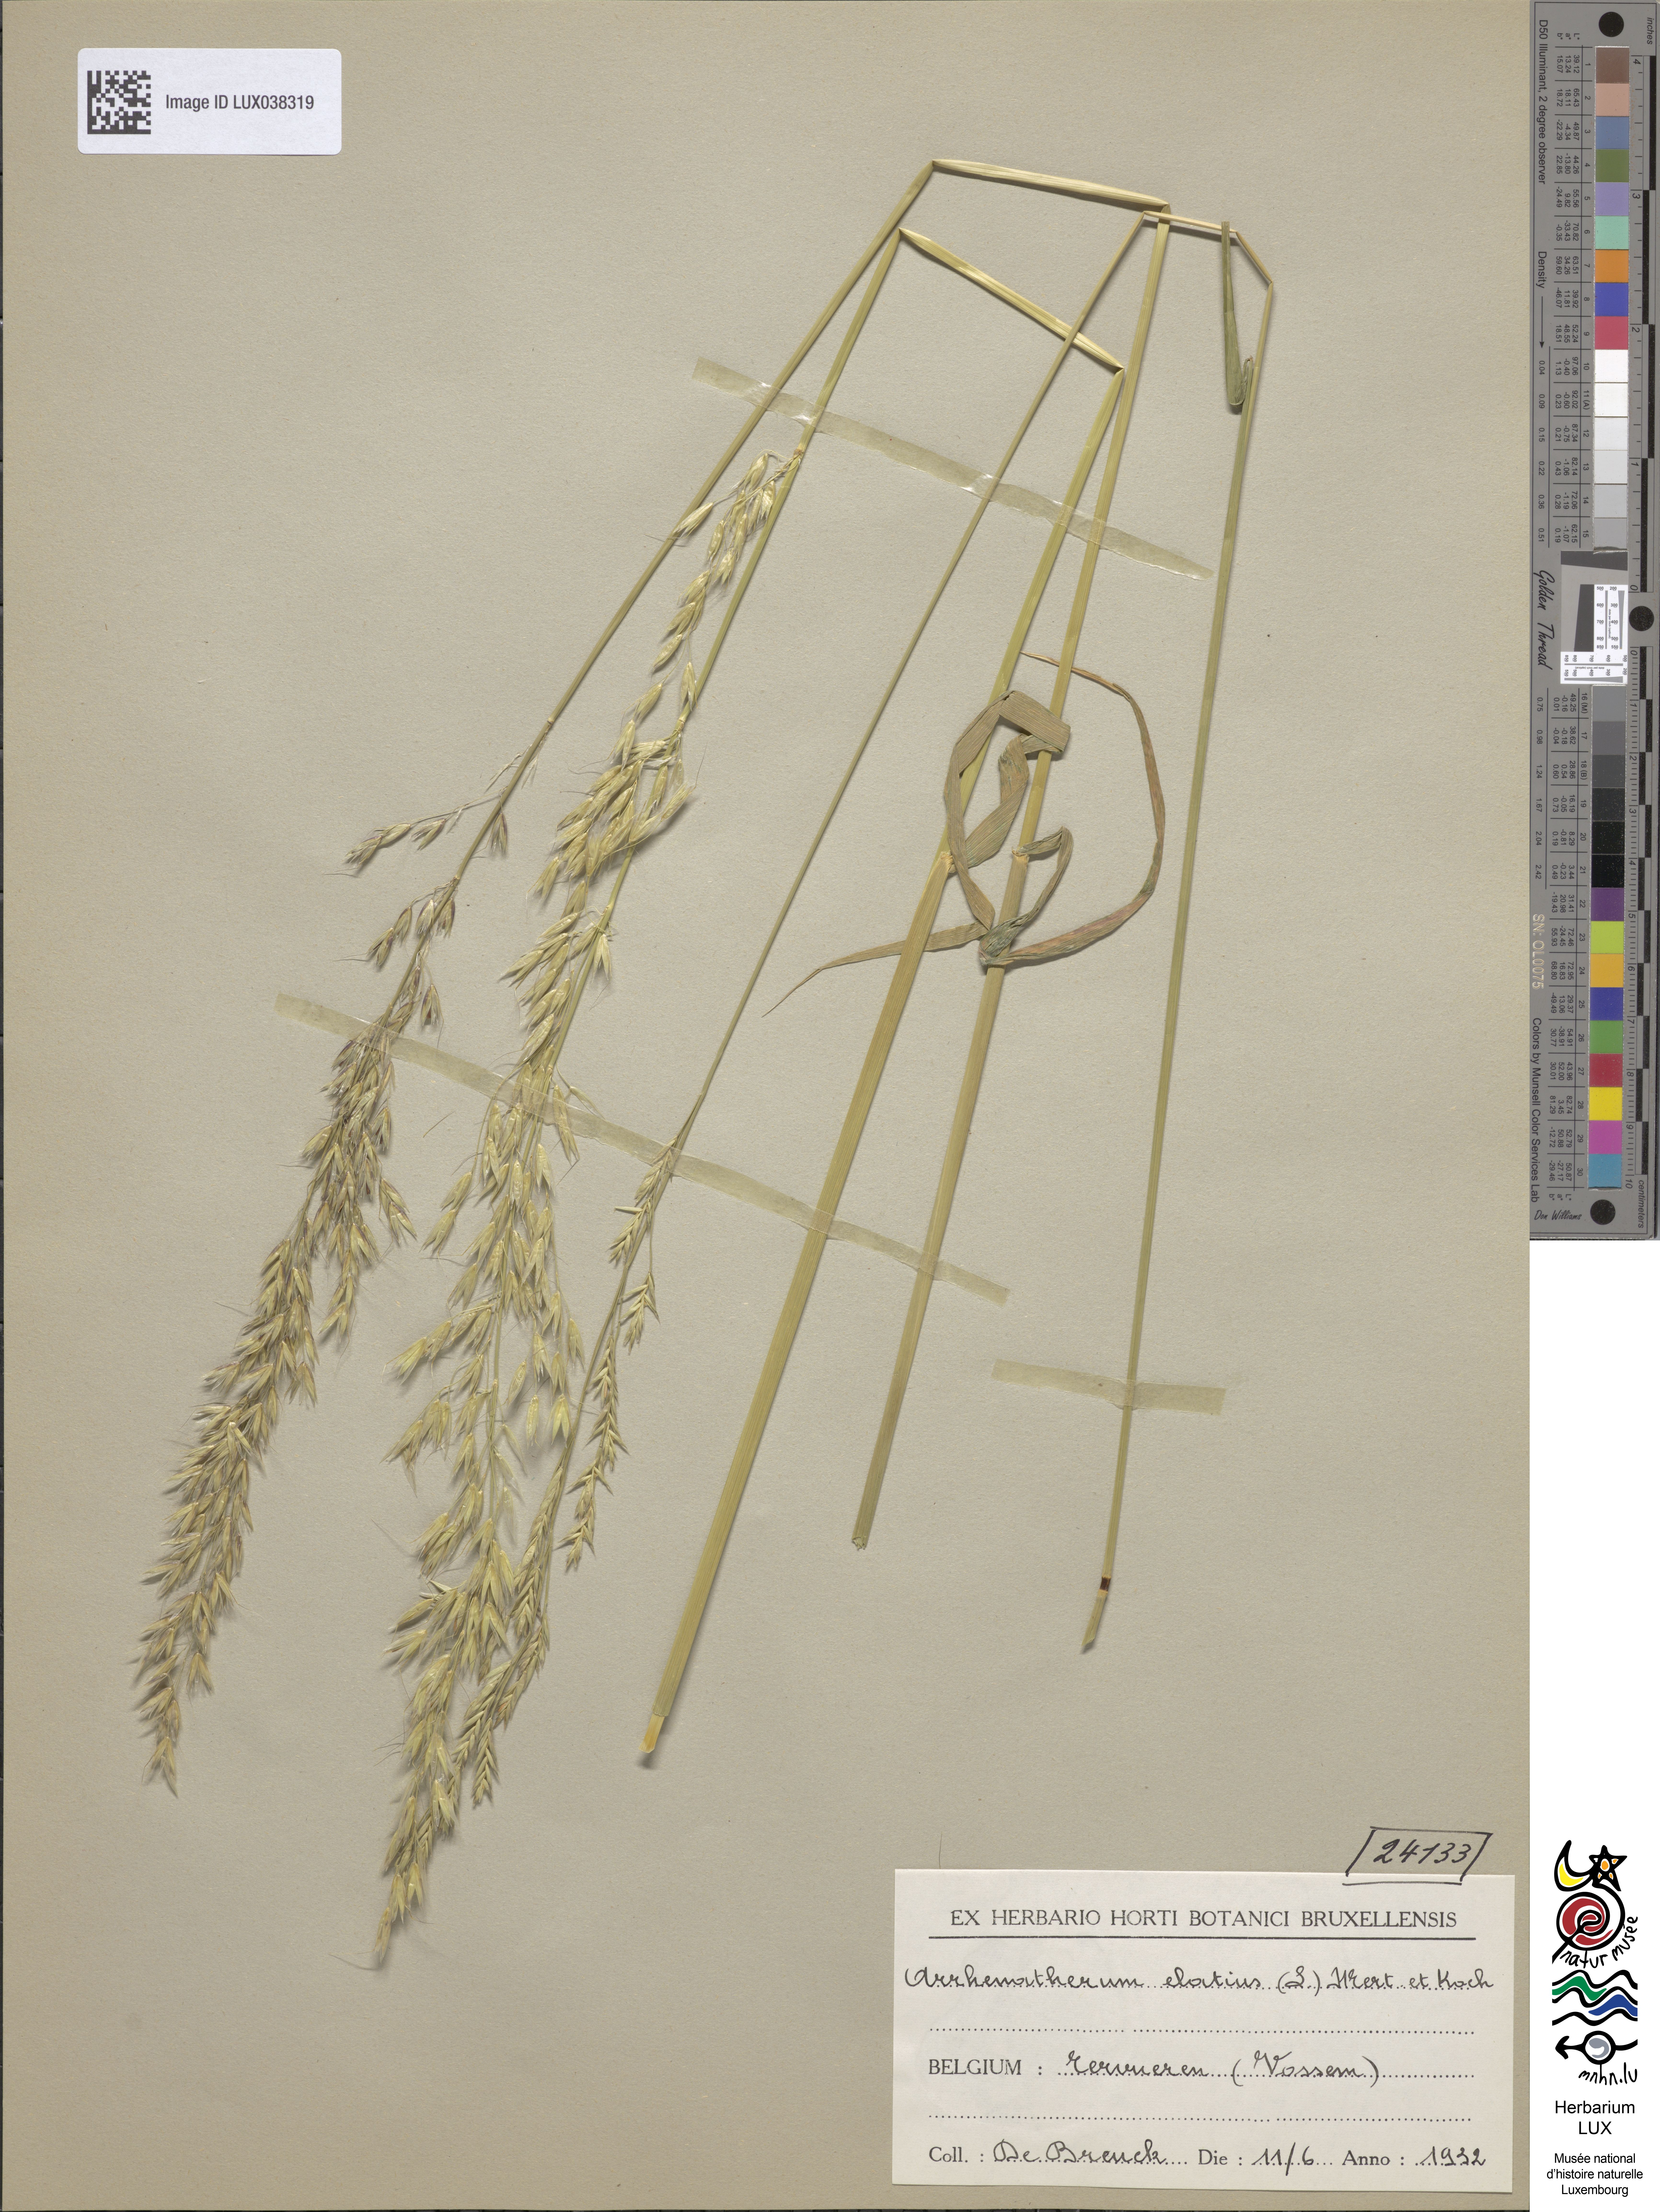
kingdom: Plantae
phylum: Tracheophyta
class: Liliopsida
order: Poales
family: Poaceae
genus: Arrhenatherum
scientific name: Arrhenatherum elatius
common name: Tall oatgrass
